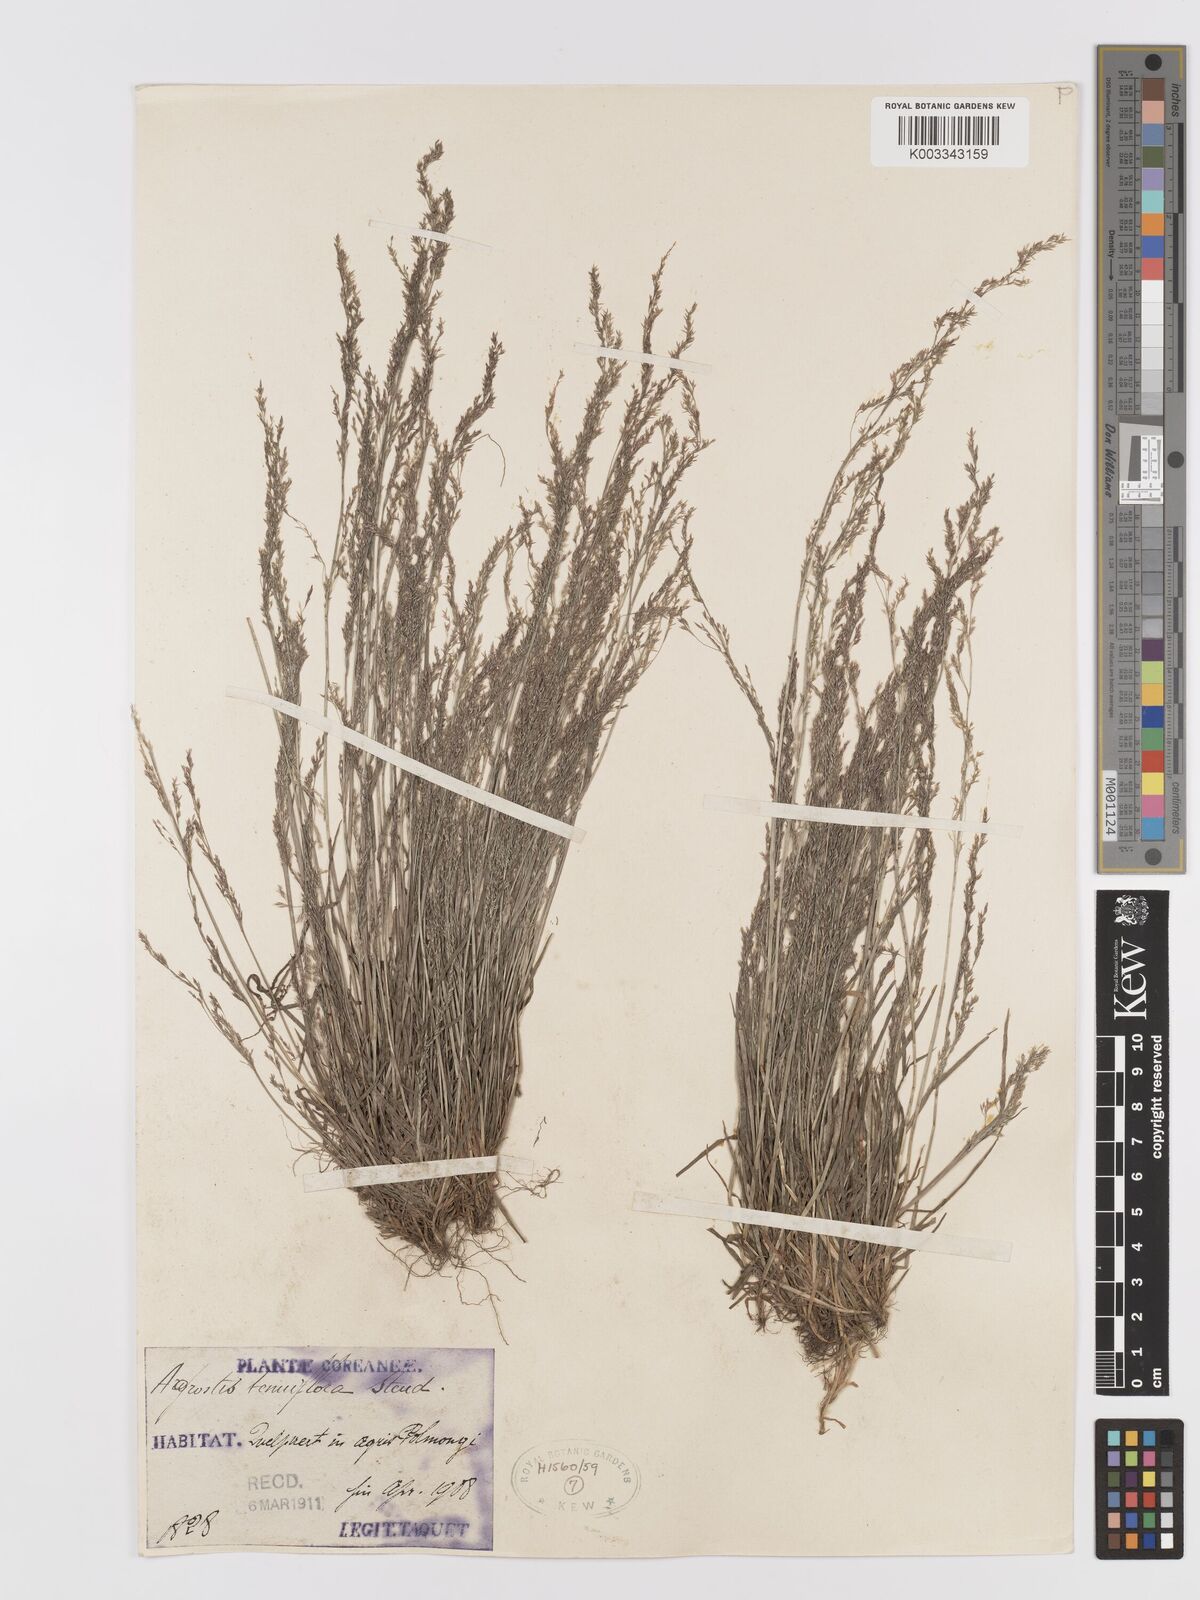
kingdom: Plantae
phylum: Tracheophyta
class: Liliopsida
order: Poales
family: Poaceae
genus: Agrostis
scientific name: Agrostis clavata
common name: Clavate bent
